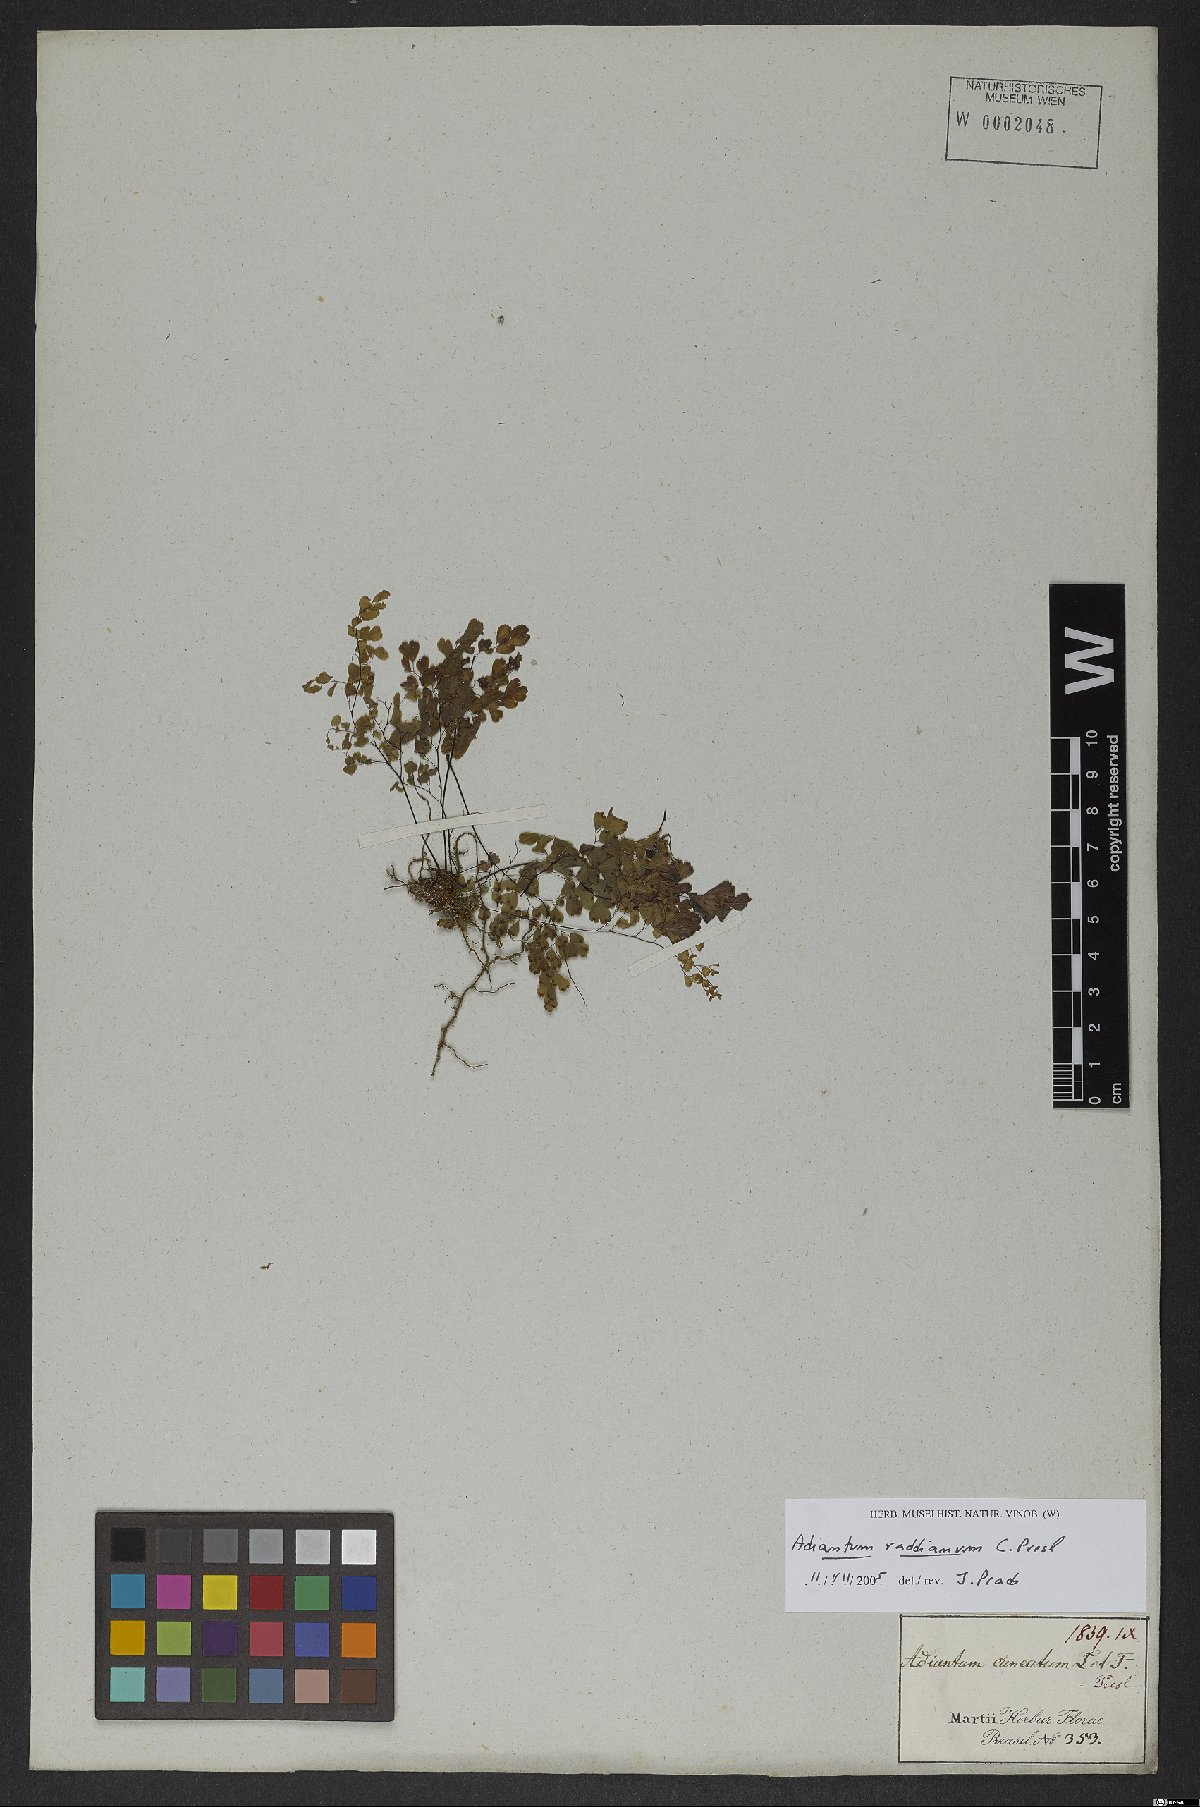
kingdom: Plantae
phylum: Tracheophyta
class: Polypodiopsida
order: Polypodiales
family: Pteridaceae
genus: Adiantum
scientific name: Adiantum raddianum
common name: Delta maidenhair fern
